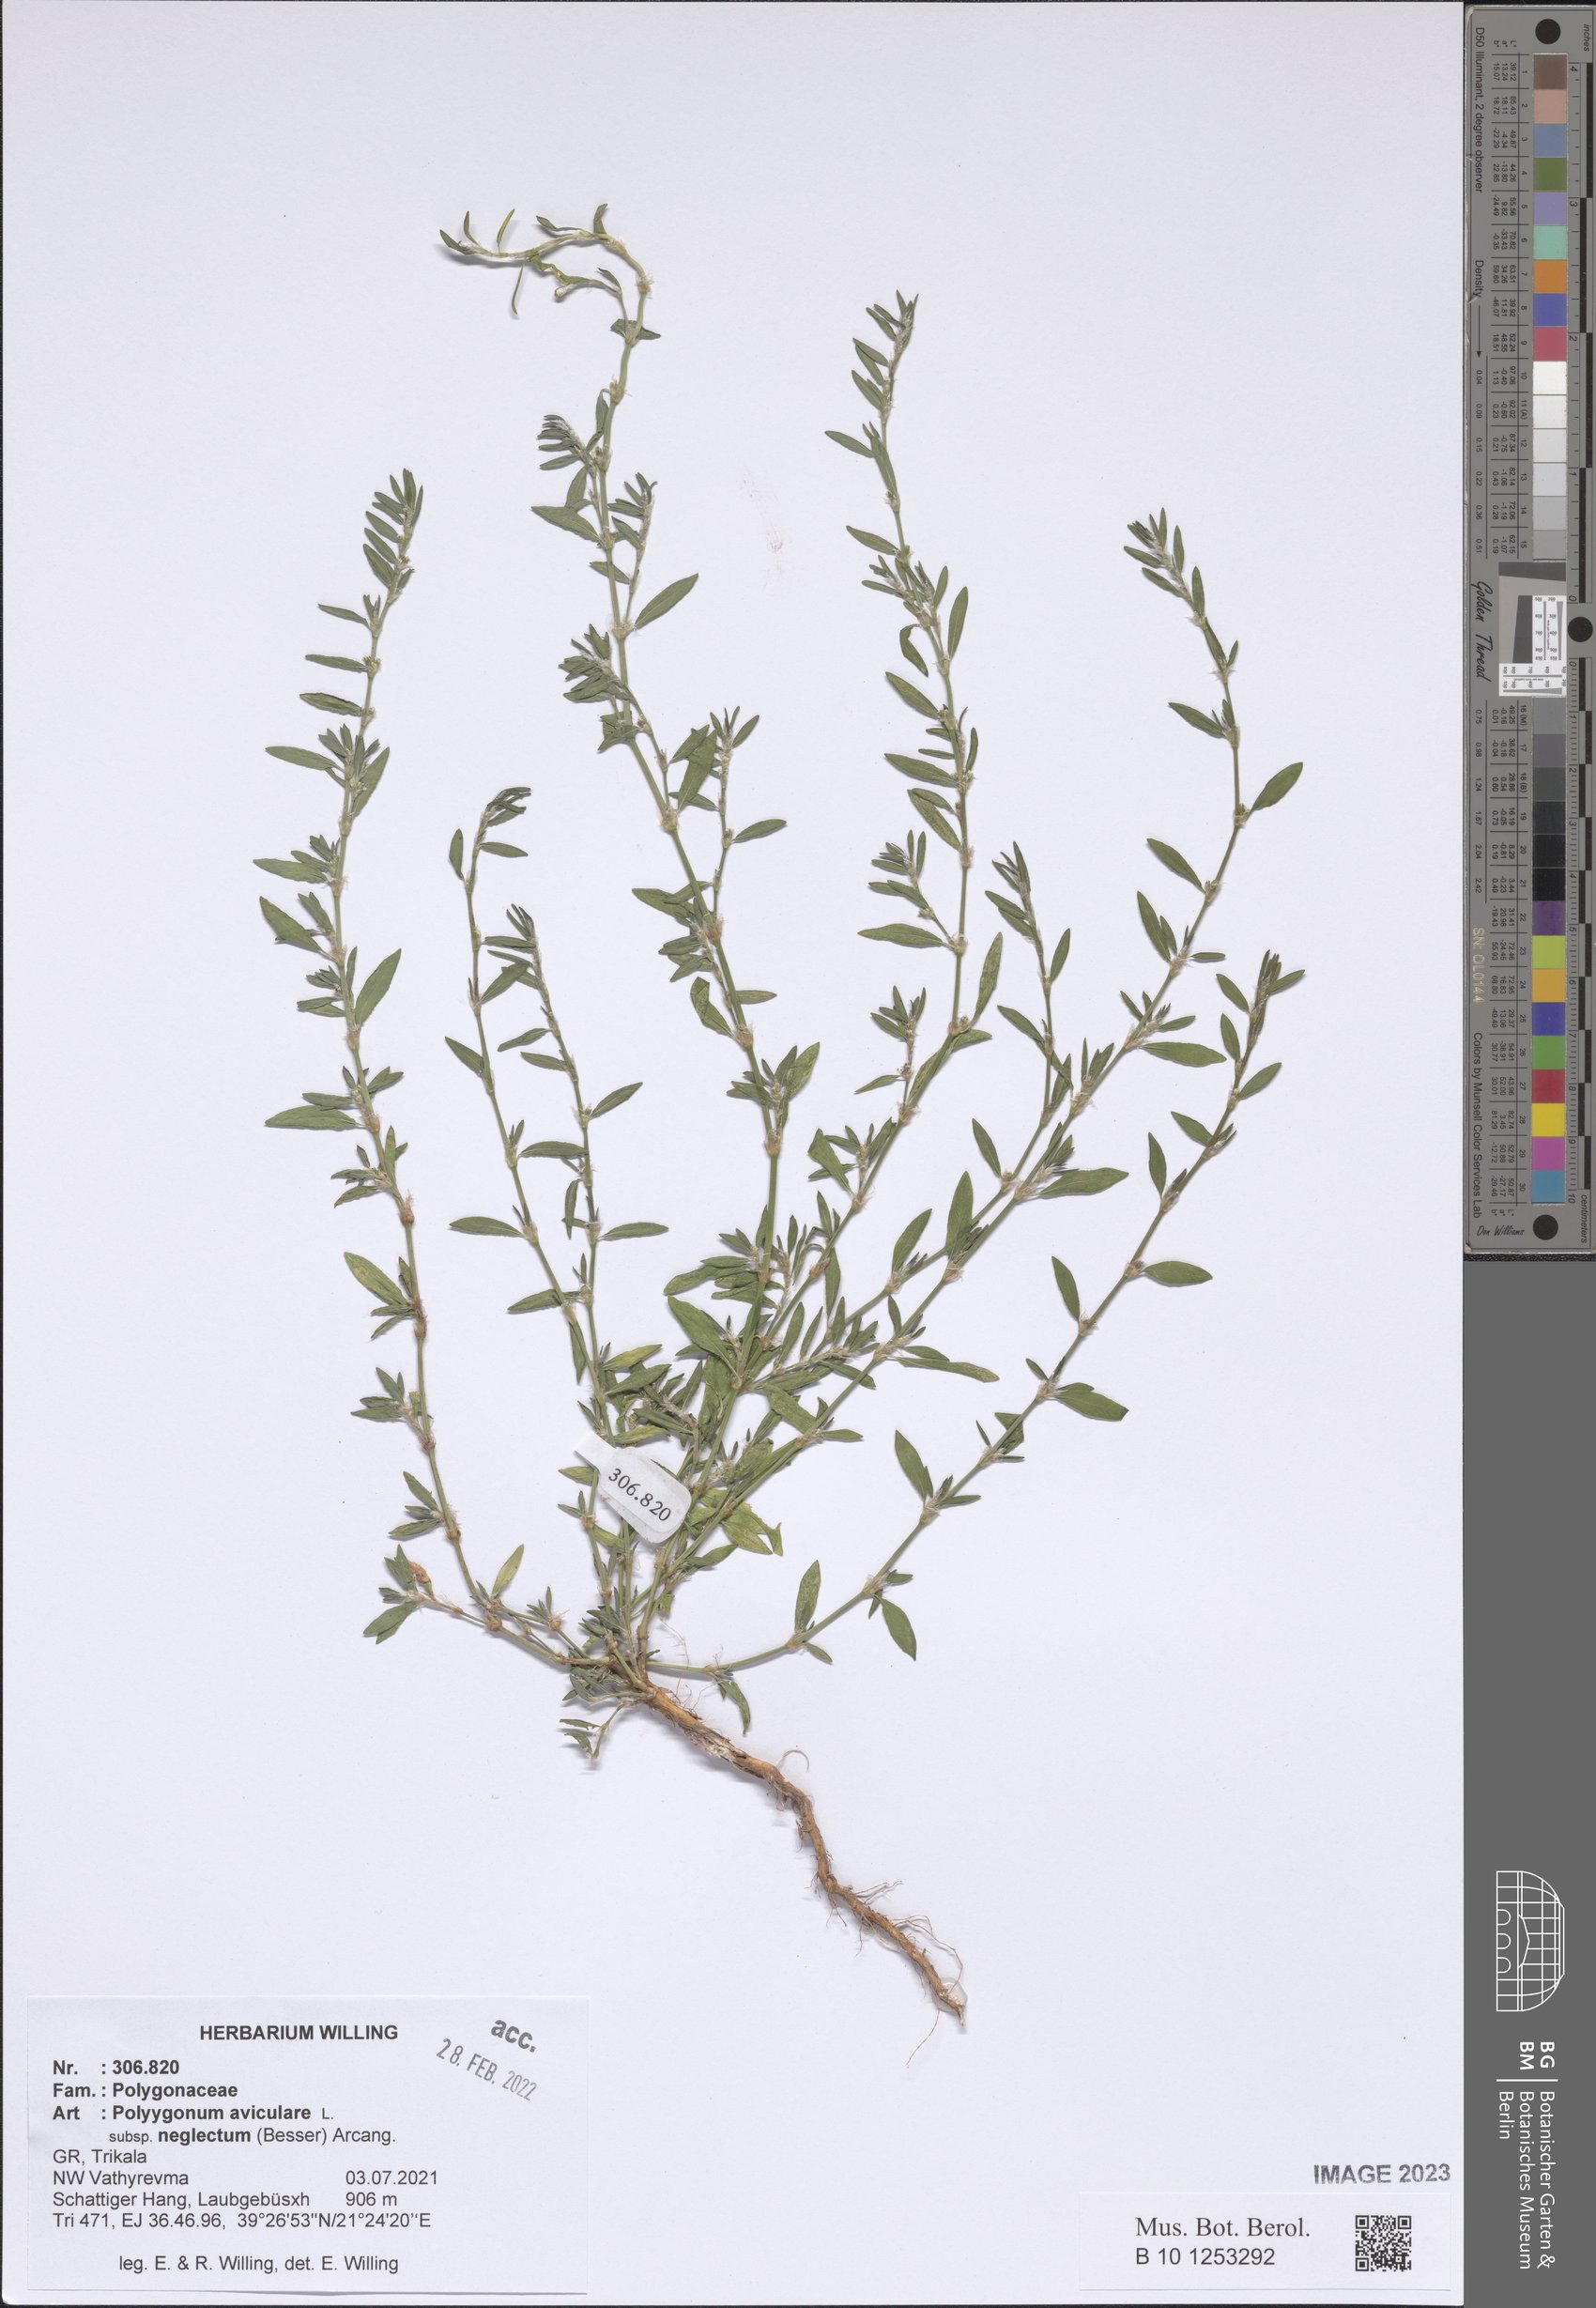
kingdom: Plantae
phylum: Tracheophyta
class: Magnoliopsida
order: Caryophyllales
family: Polygonaceae
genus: Polygonum
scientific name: Polygonum aviculare
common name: Prostrate knotweed
